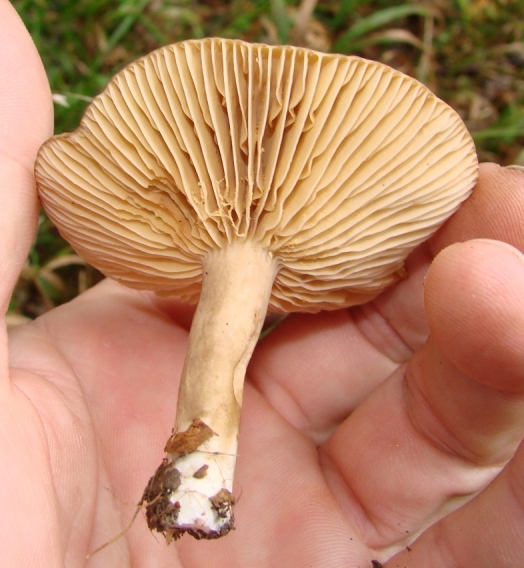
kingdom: Fungi
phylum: Basidiomycota
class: Agaricomycetes
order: Russulales
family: Russulaceae
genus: Lactarius
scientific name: Lactarius romagnesii
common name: fjernbladet mælkehat
